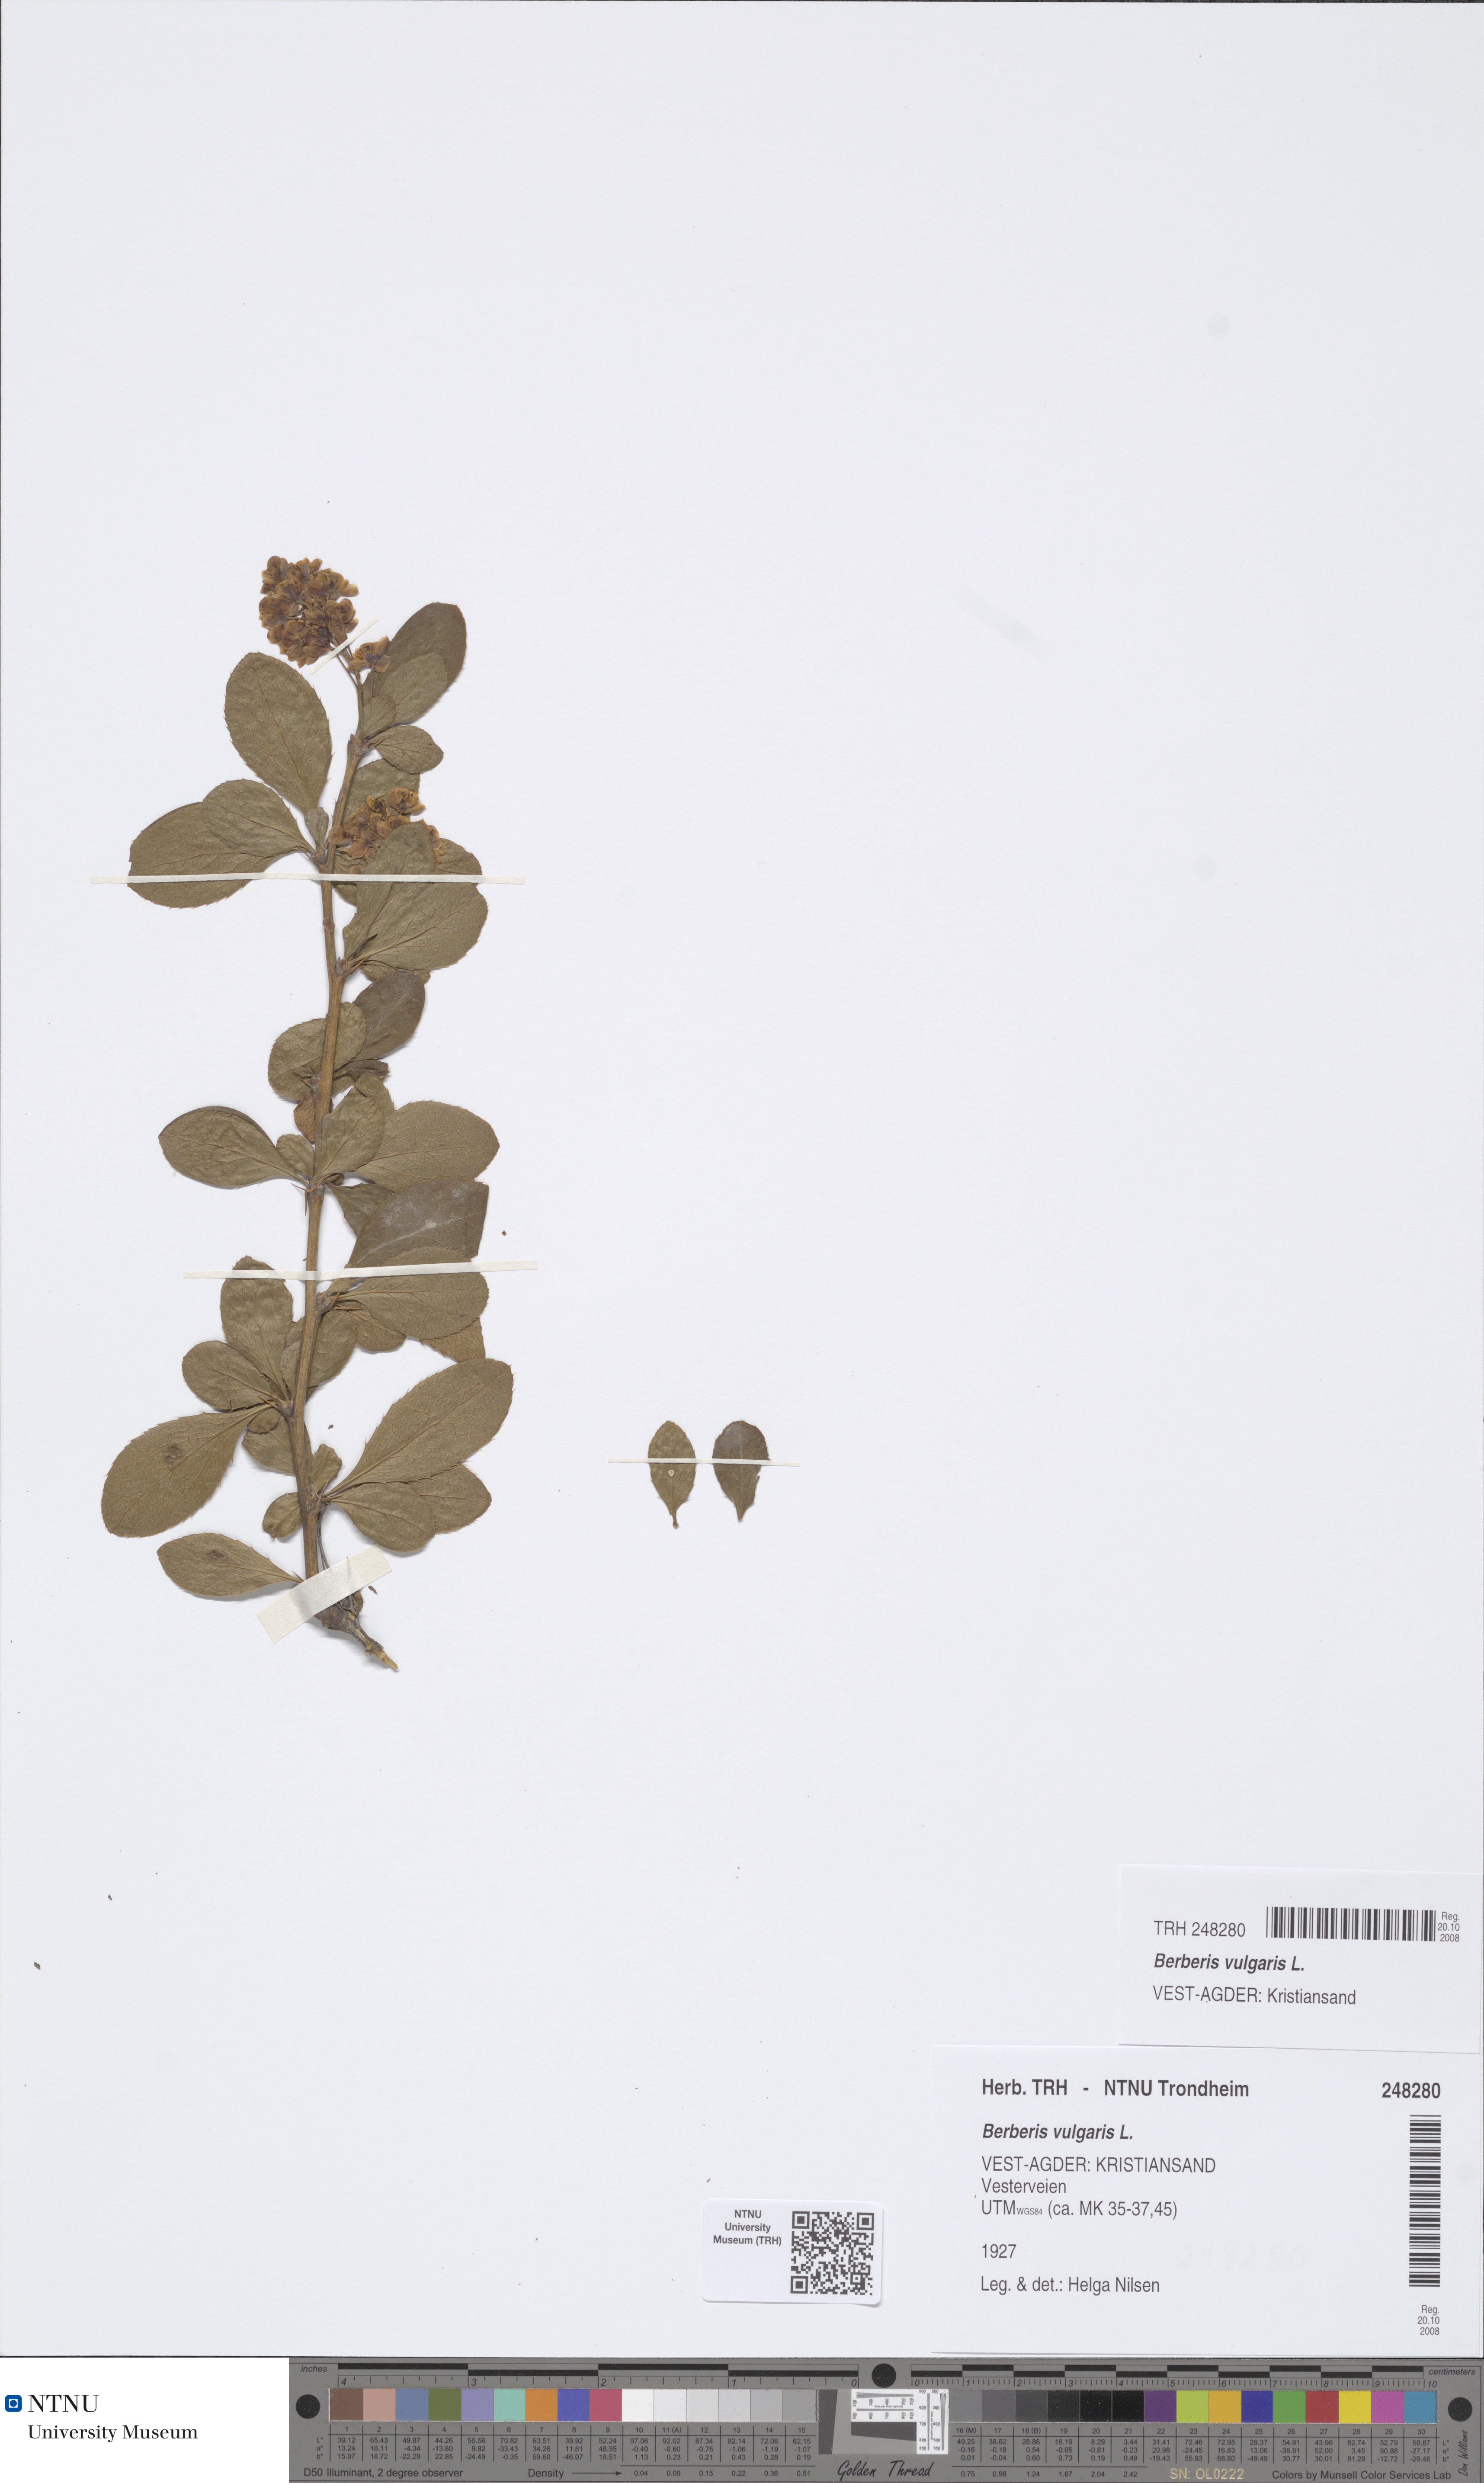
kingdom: Plantae
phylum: Tracheophyta
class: Magnoliopsida
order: Ranunculales
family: Berberidaceae
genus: Berberis
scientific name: Berberis vulgaris
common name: Barberry
